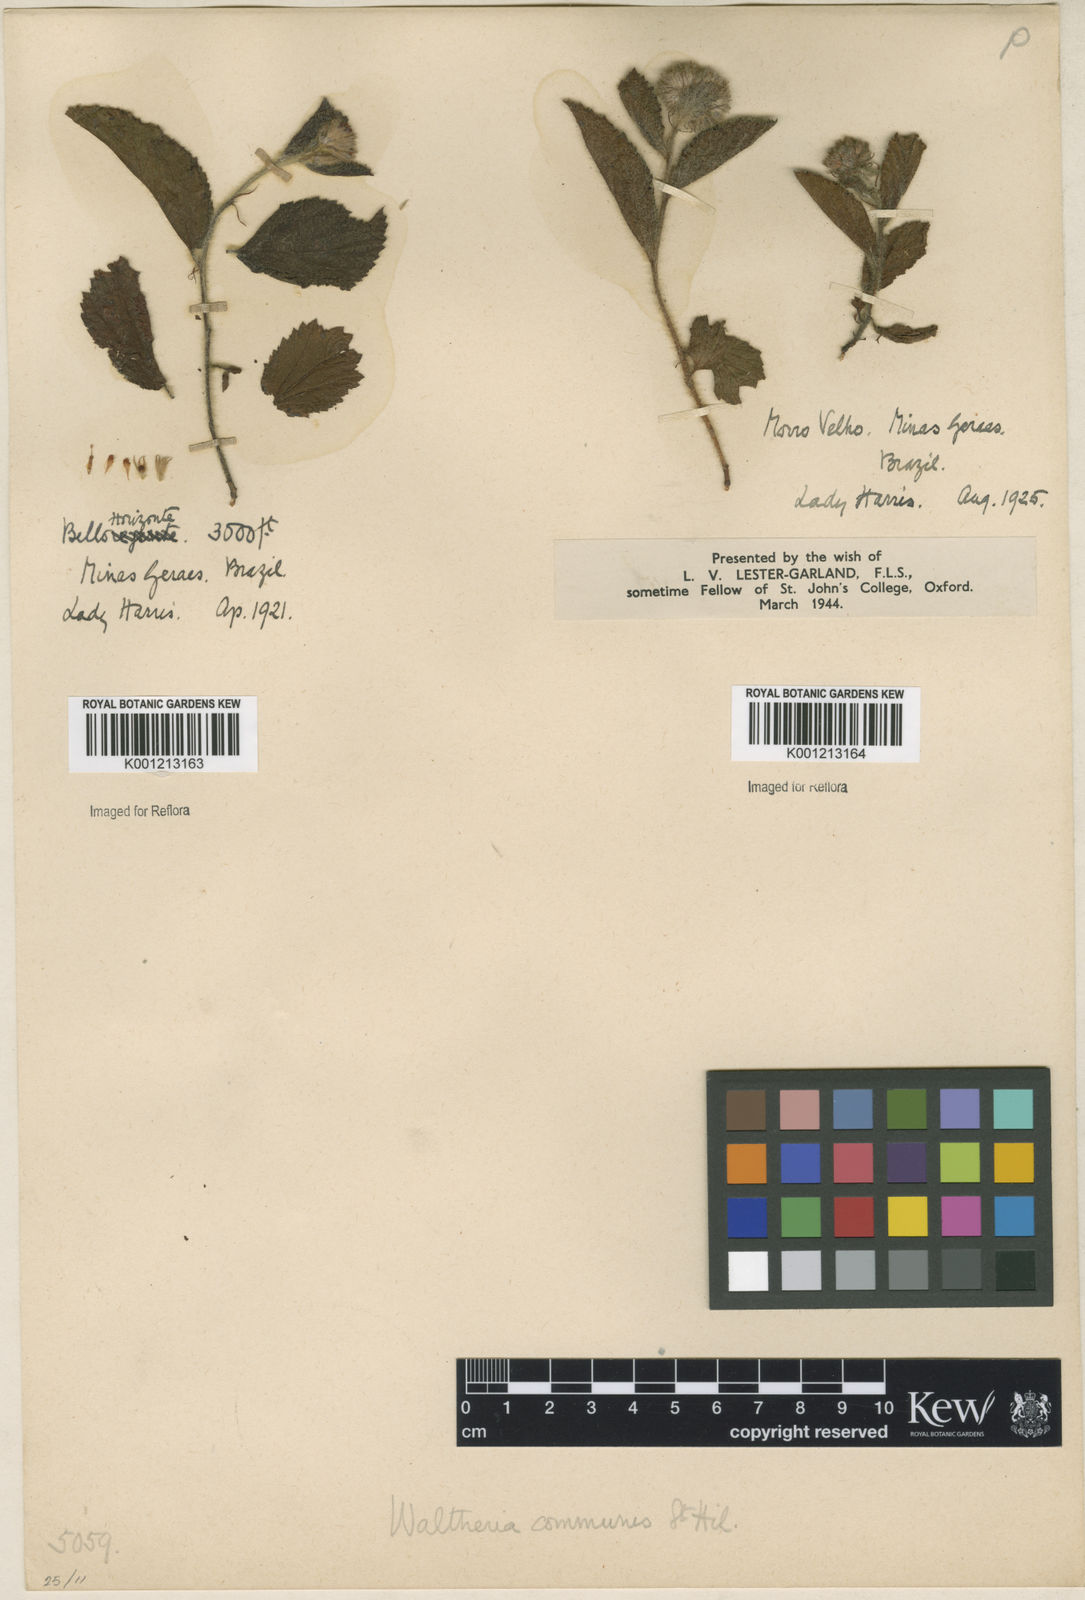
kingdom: Plantae
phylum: Tracheophyta
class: Magnoliopsida
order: Malvales
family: Malvaceae
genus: Waltheria
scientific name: Waltheria communis
